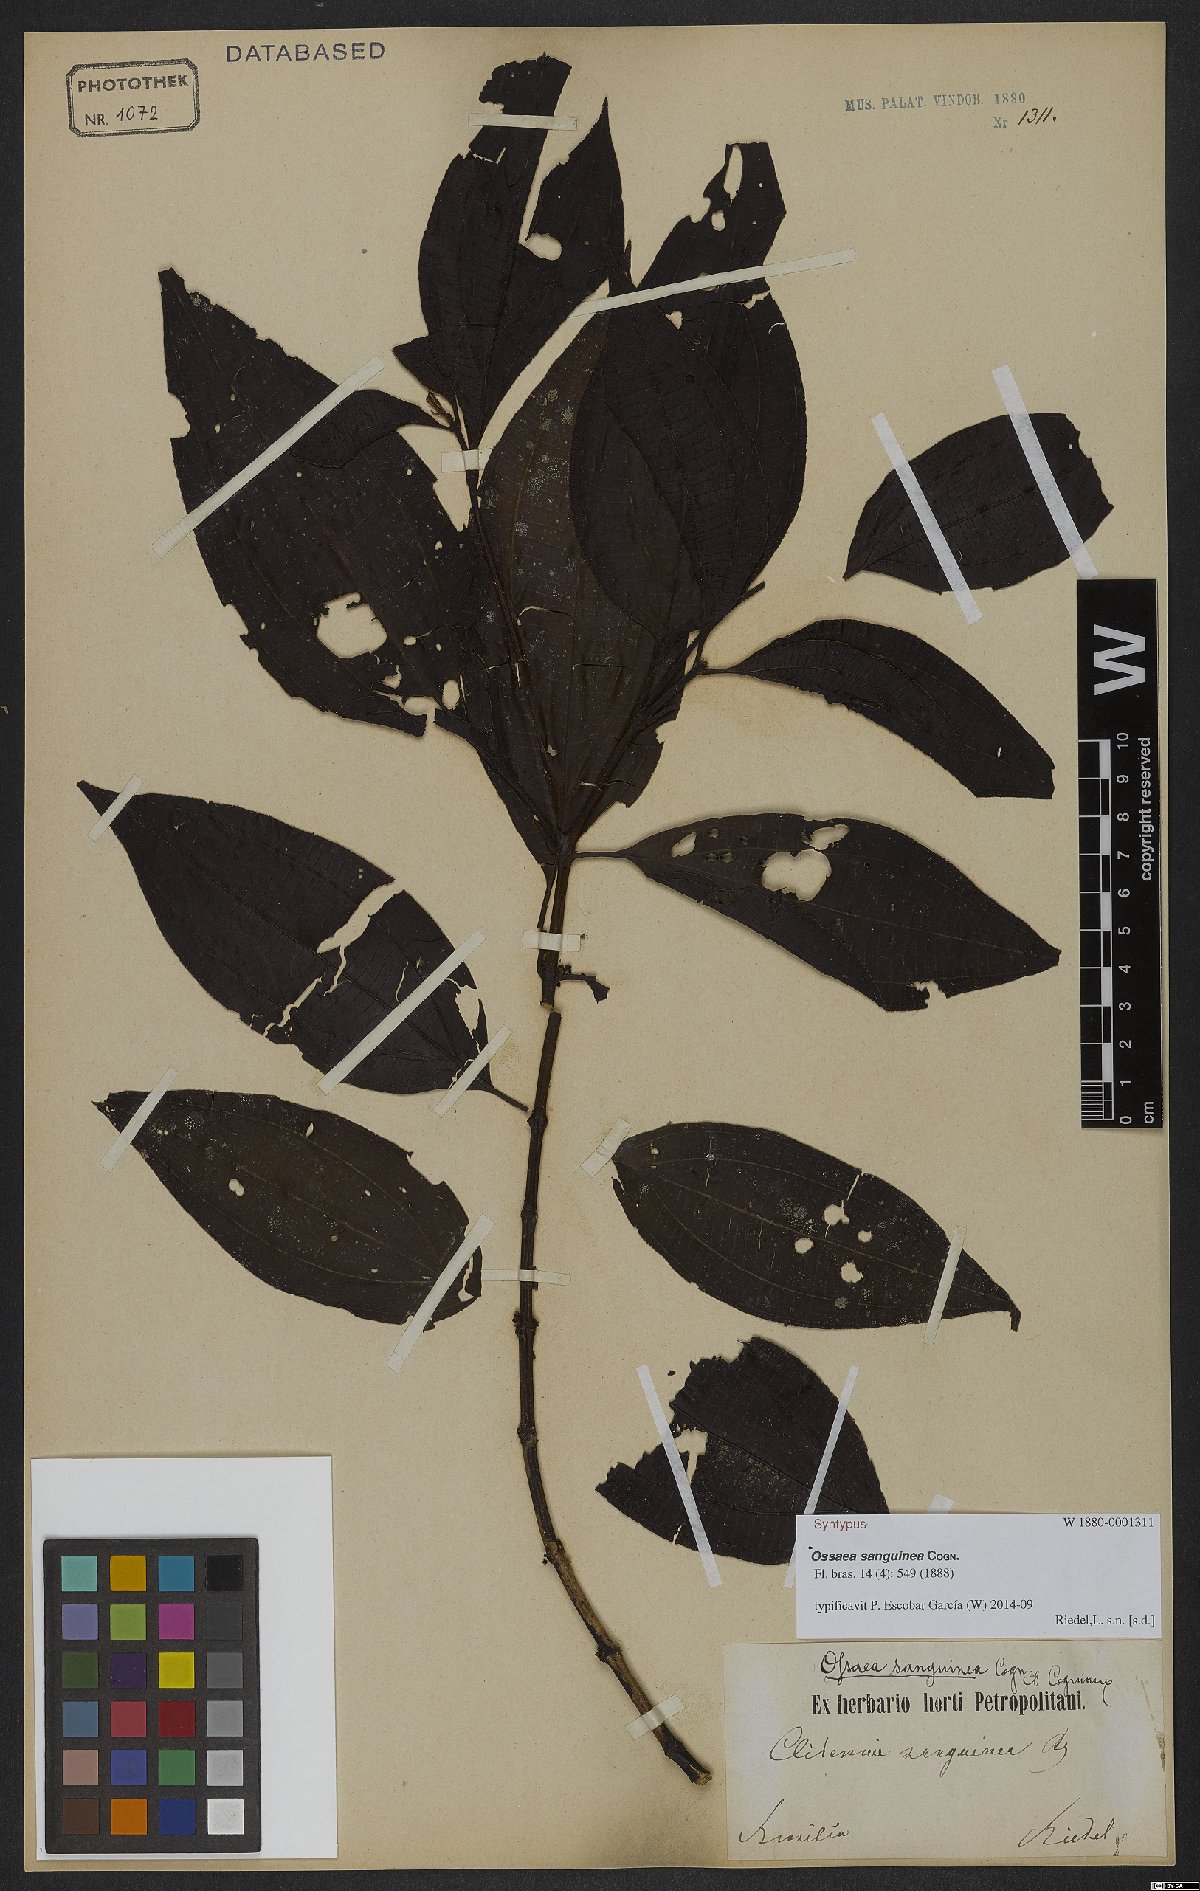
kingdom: Plantae
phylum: Tracheophyta
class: Magnoliopsida
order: Myrtales
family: Melastomataceae
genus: Miconia
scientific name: Miconia secunsanguinea
